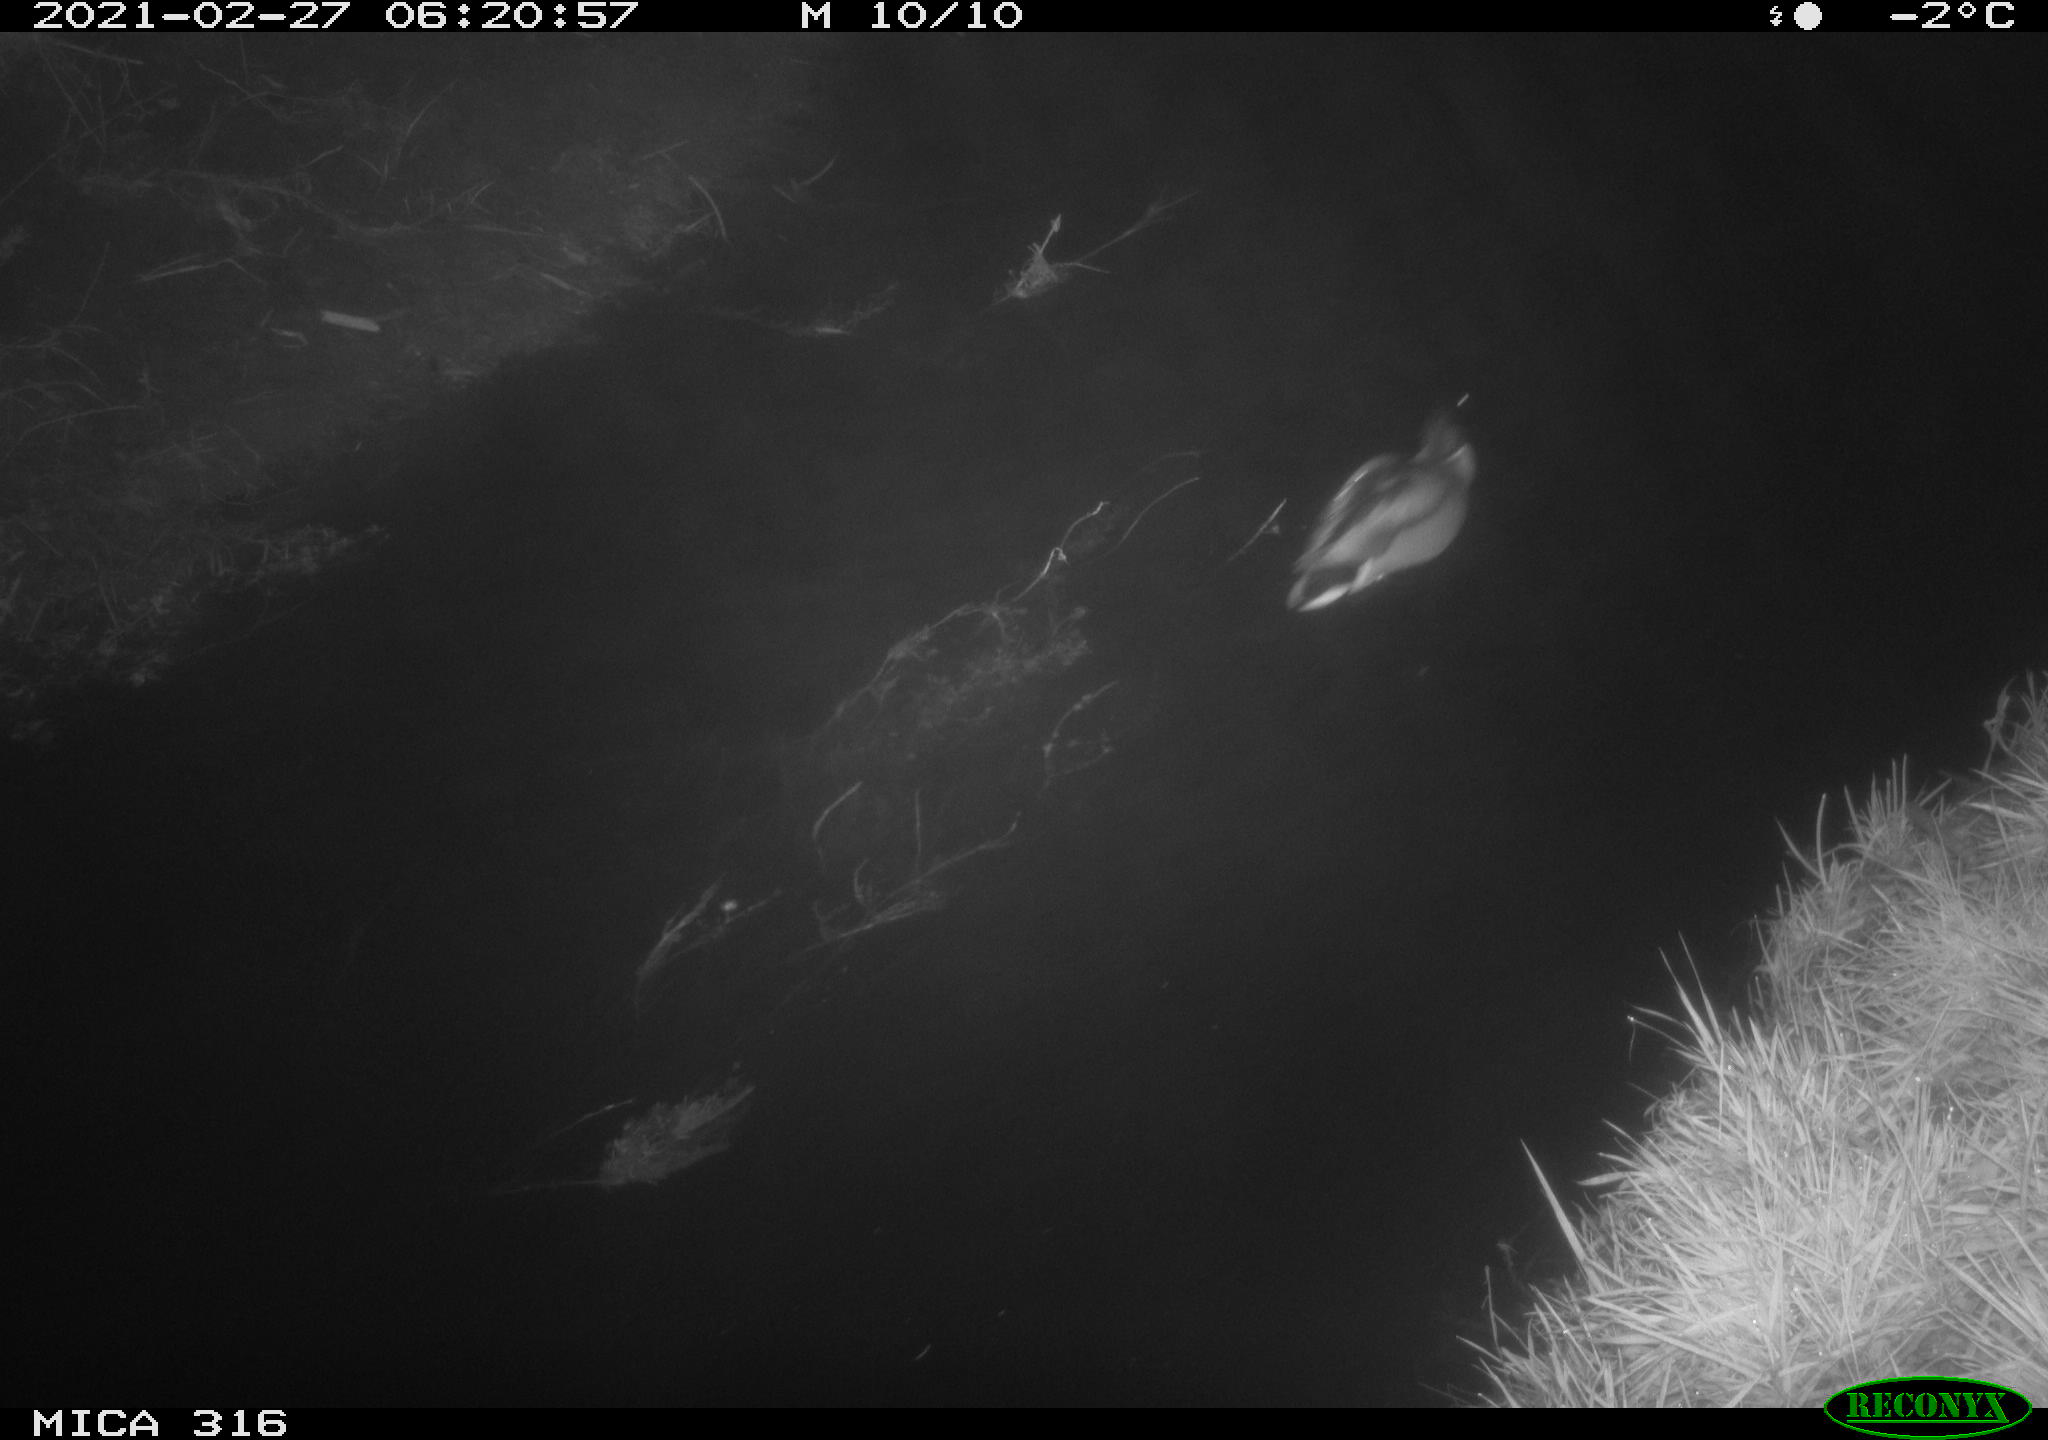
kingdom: Animalia
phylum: Chordata
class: Aves
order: Anseriformes
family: Anatidae
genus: Anas
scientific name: Anas platyrhynchos
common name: Mallard
